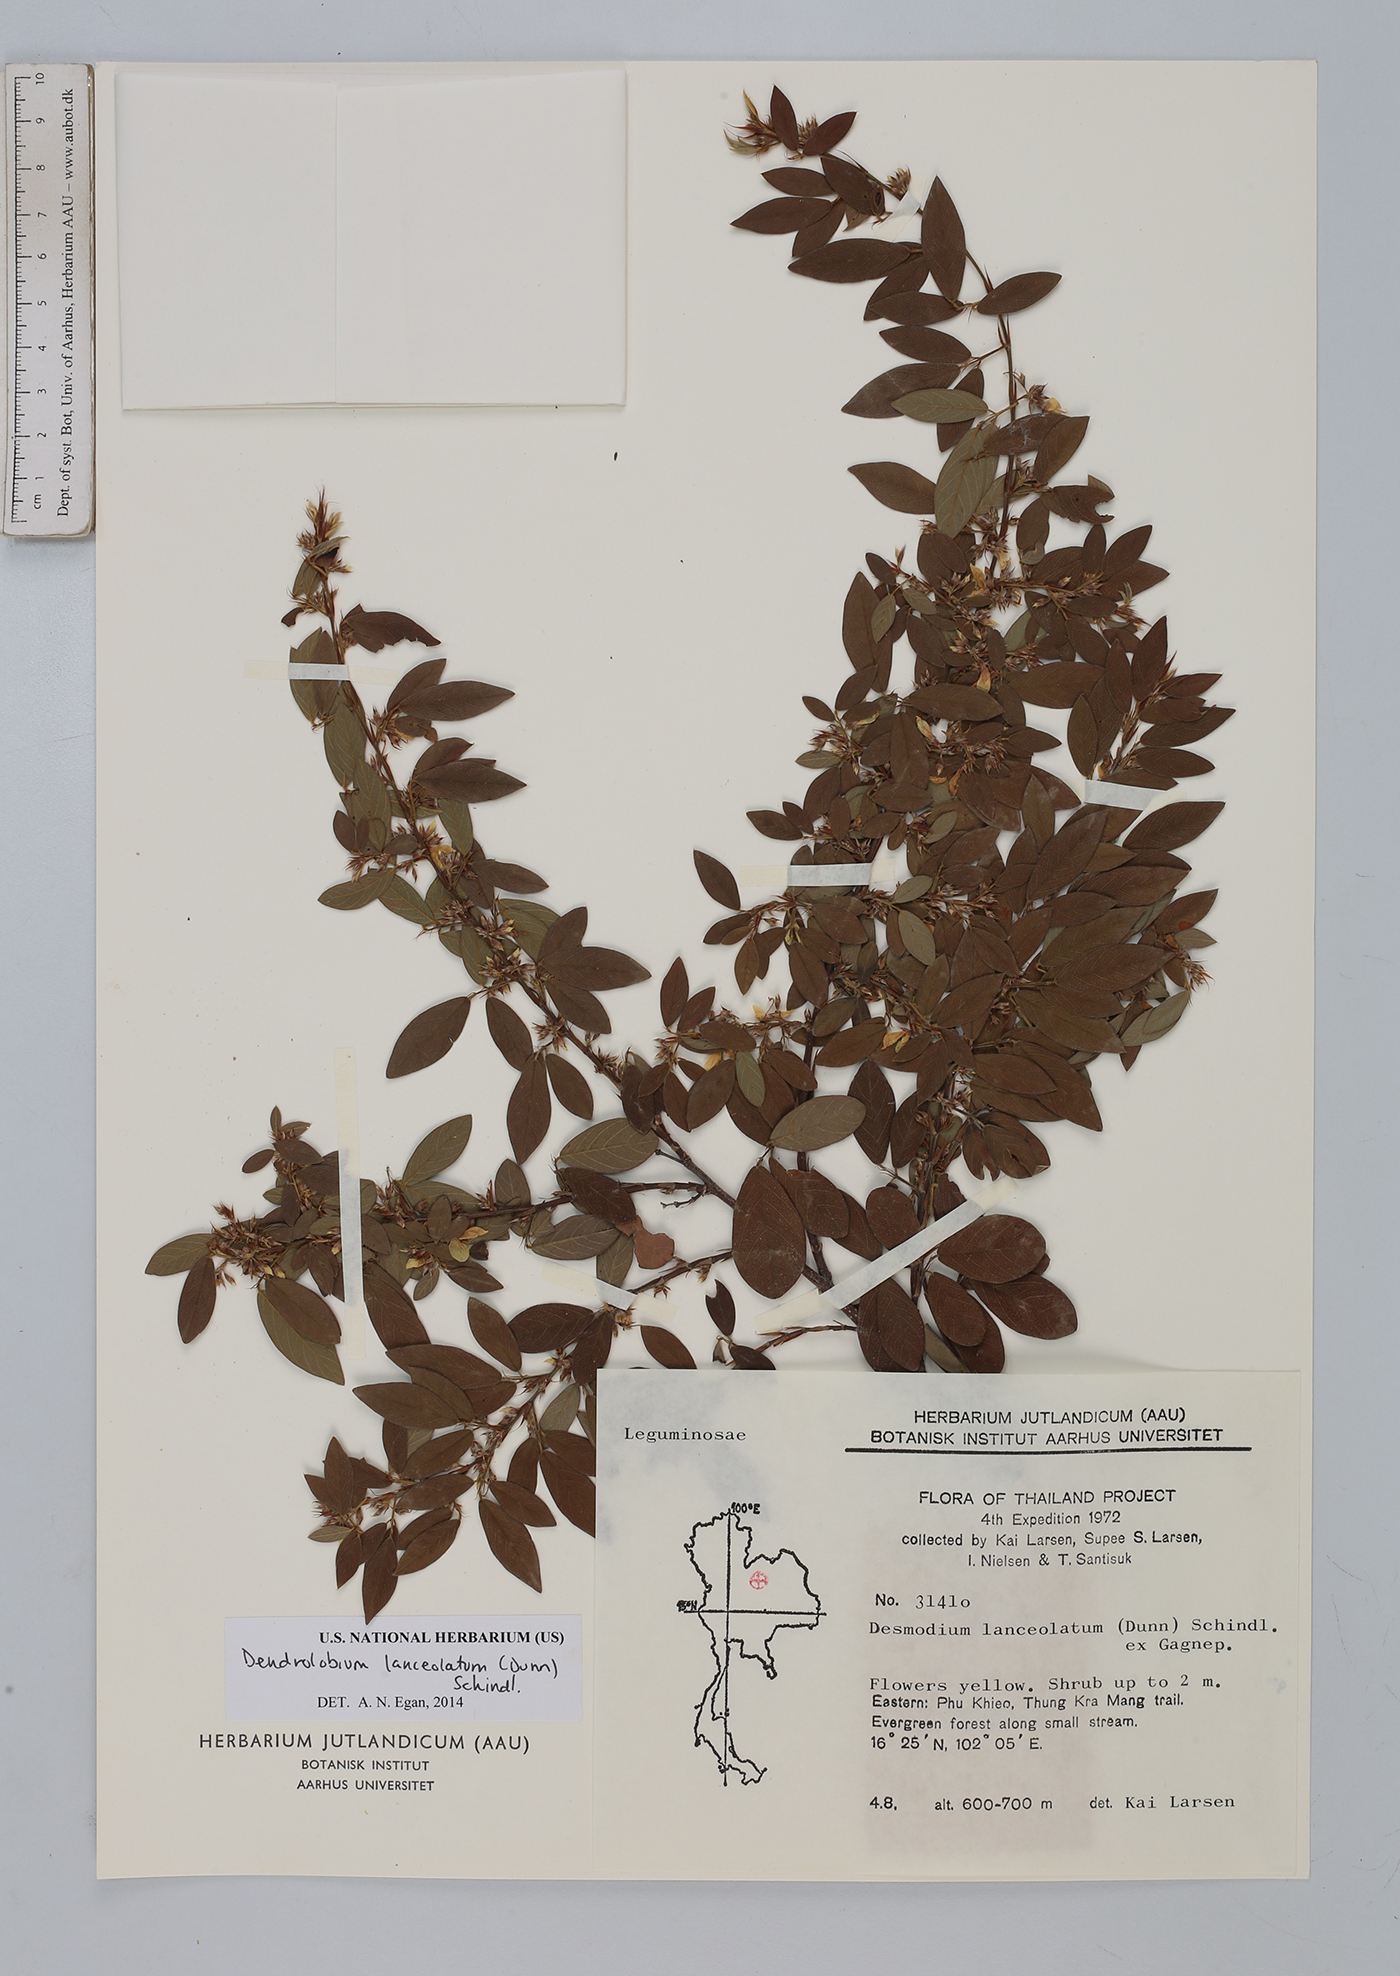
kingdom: Plantae
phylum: Tracheophyta
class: Magnoliopsida
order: Fabales
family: Fabaceae
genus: Dendrolobium
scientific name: Dendrolobium lanceolatum
